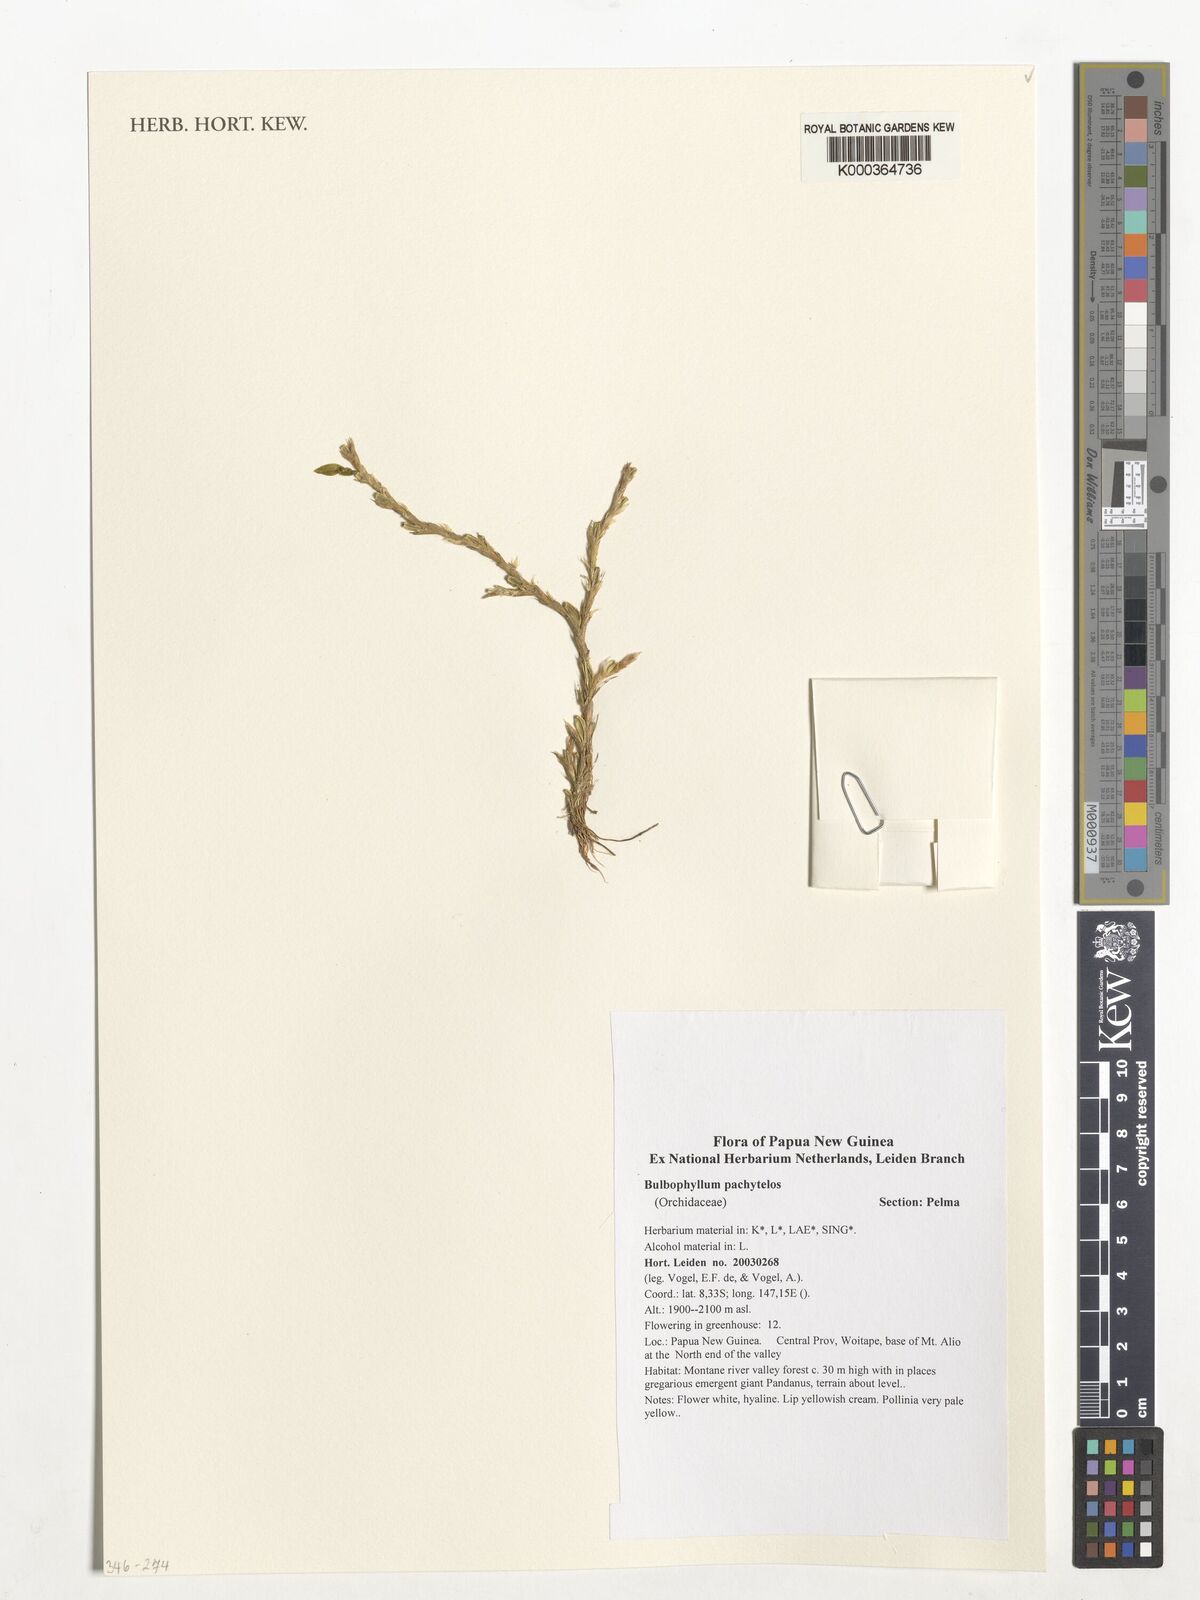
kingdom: Plantae
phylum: Tracheophyta
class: Liliopsida
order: Asparagales
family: Orchidaceae
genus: Bulbophyllum
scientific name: Bulbophyllum pachytelos
